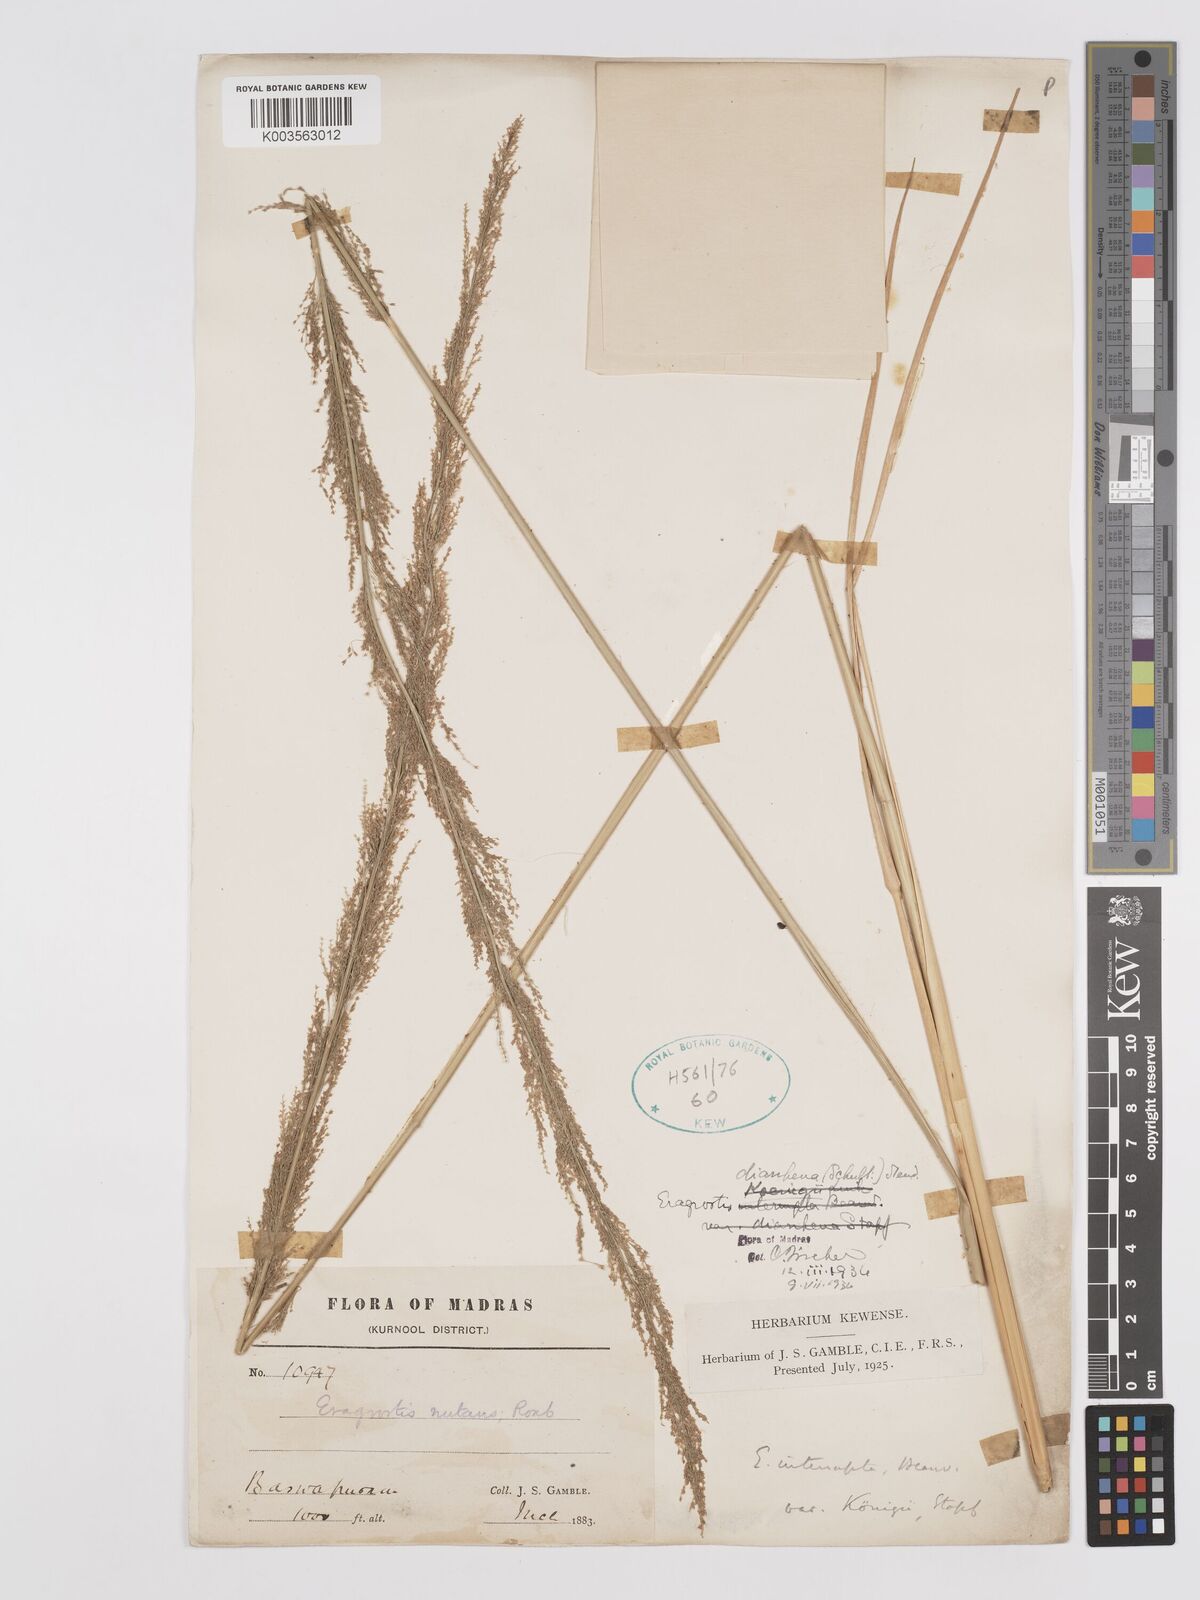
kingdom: Plantae
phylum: Tracheophyta
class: Liliopsida
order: Poales
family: Poaceae
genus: Eragrostis
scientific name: Eragrostis japonica
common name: Pond lovegrass
